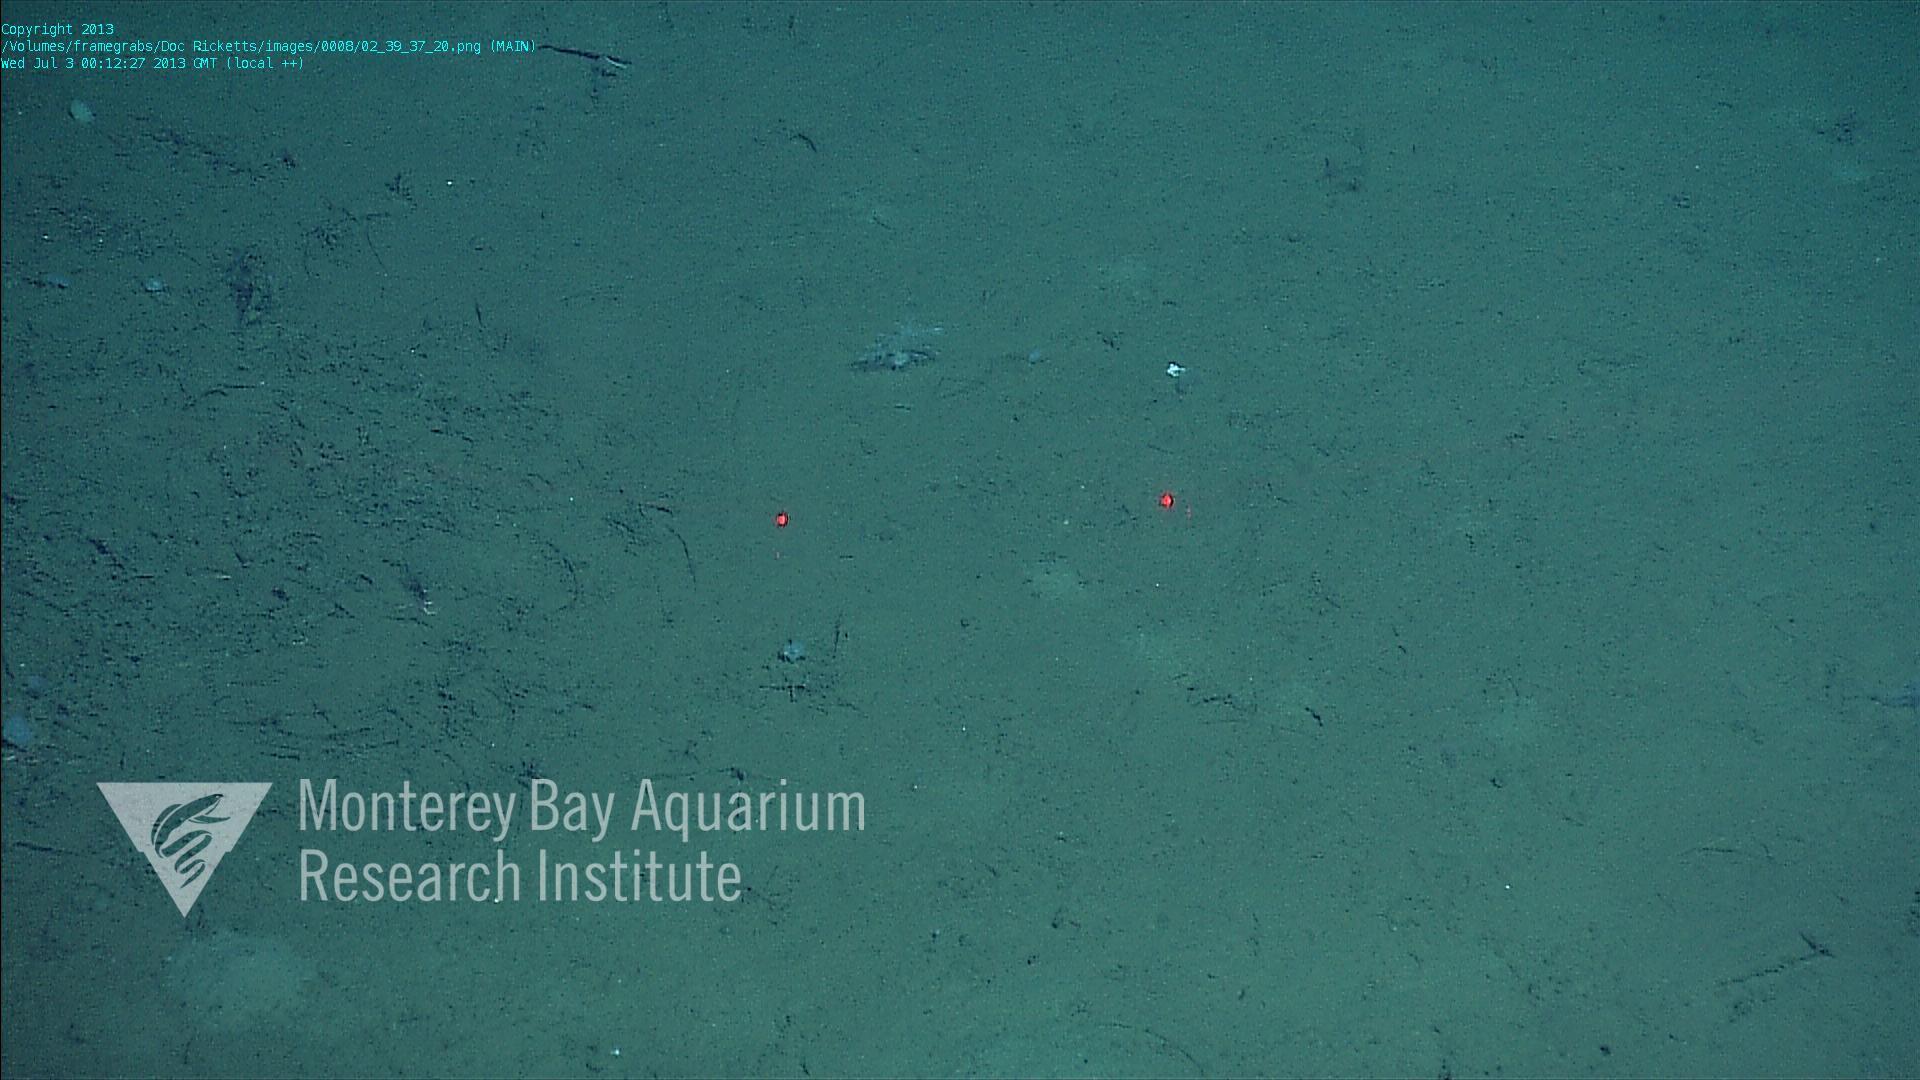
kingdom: Animalia
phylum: Porifera
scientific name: Porifera
